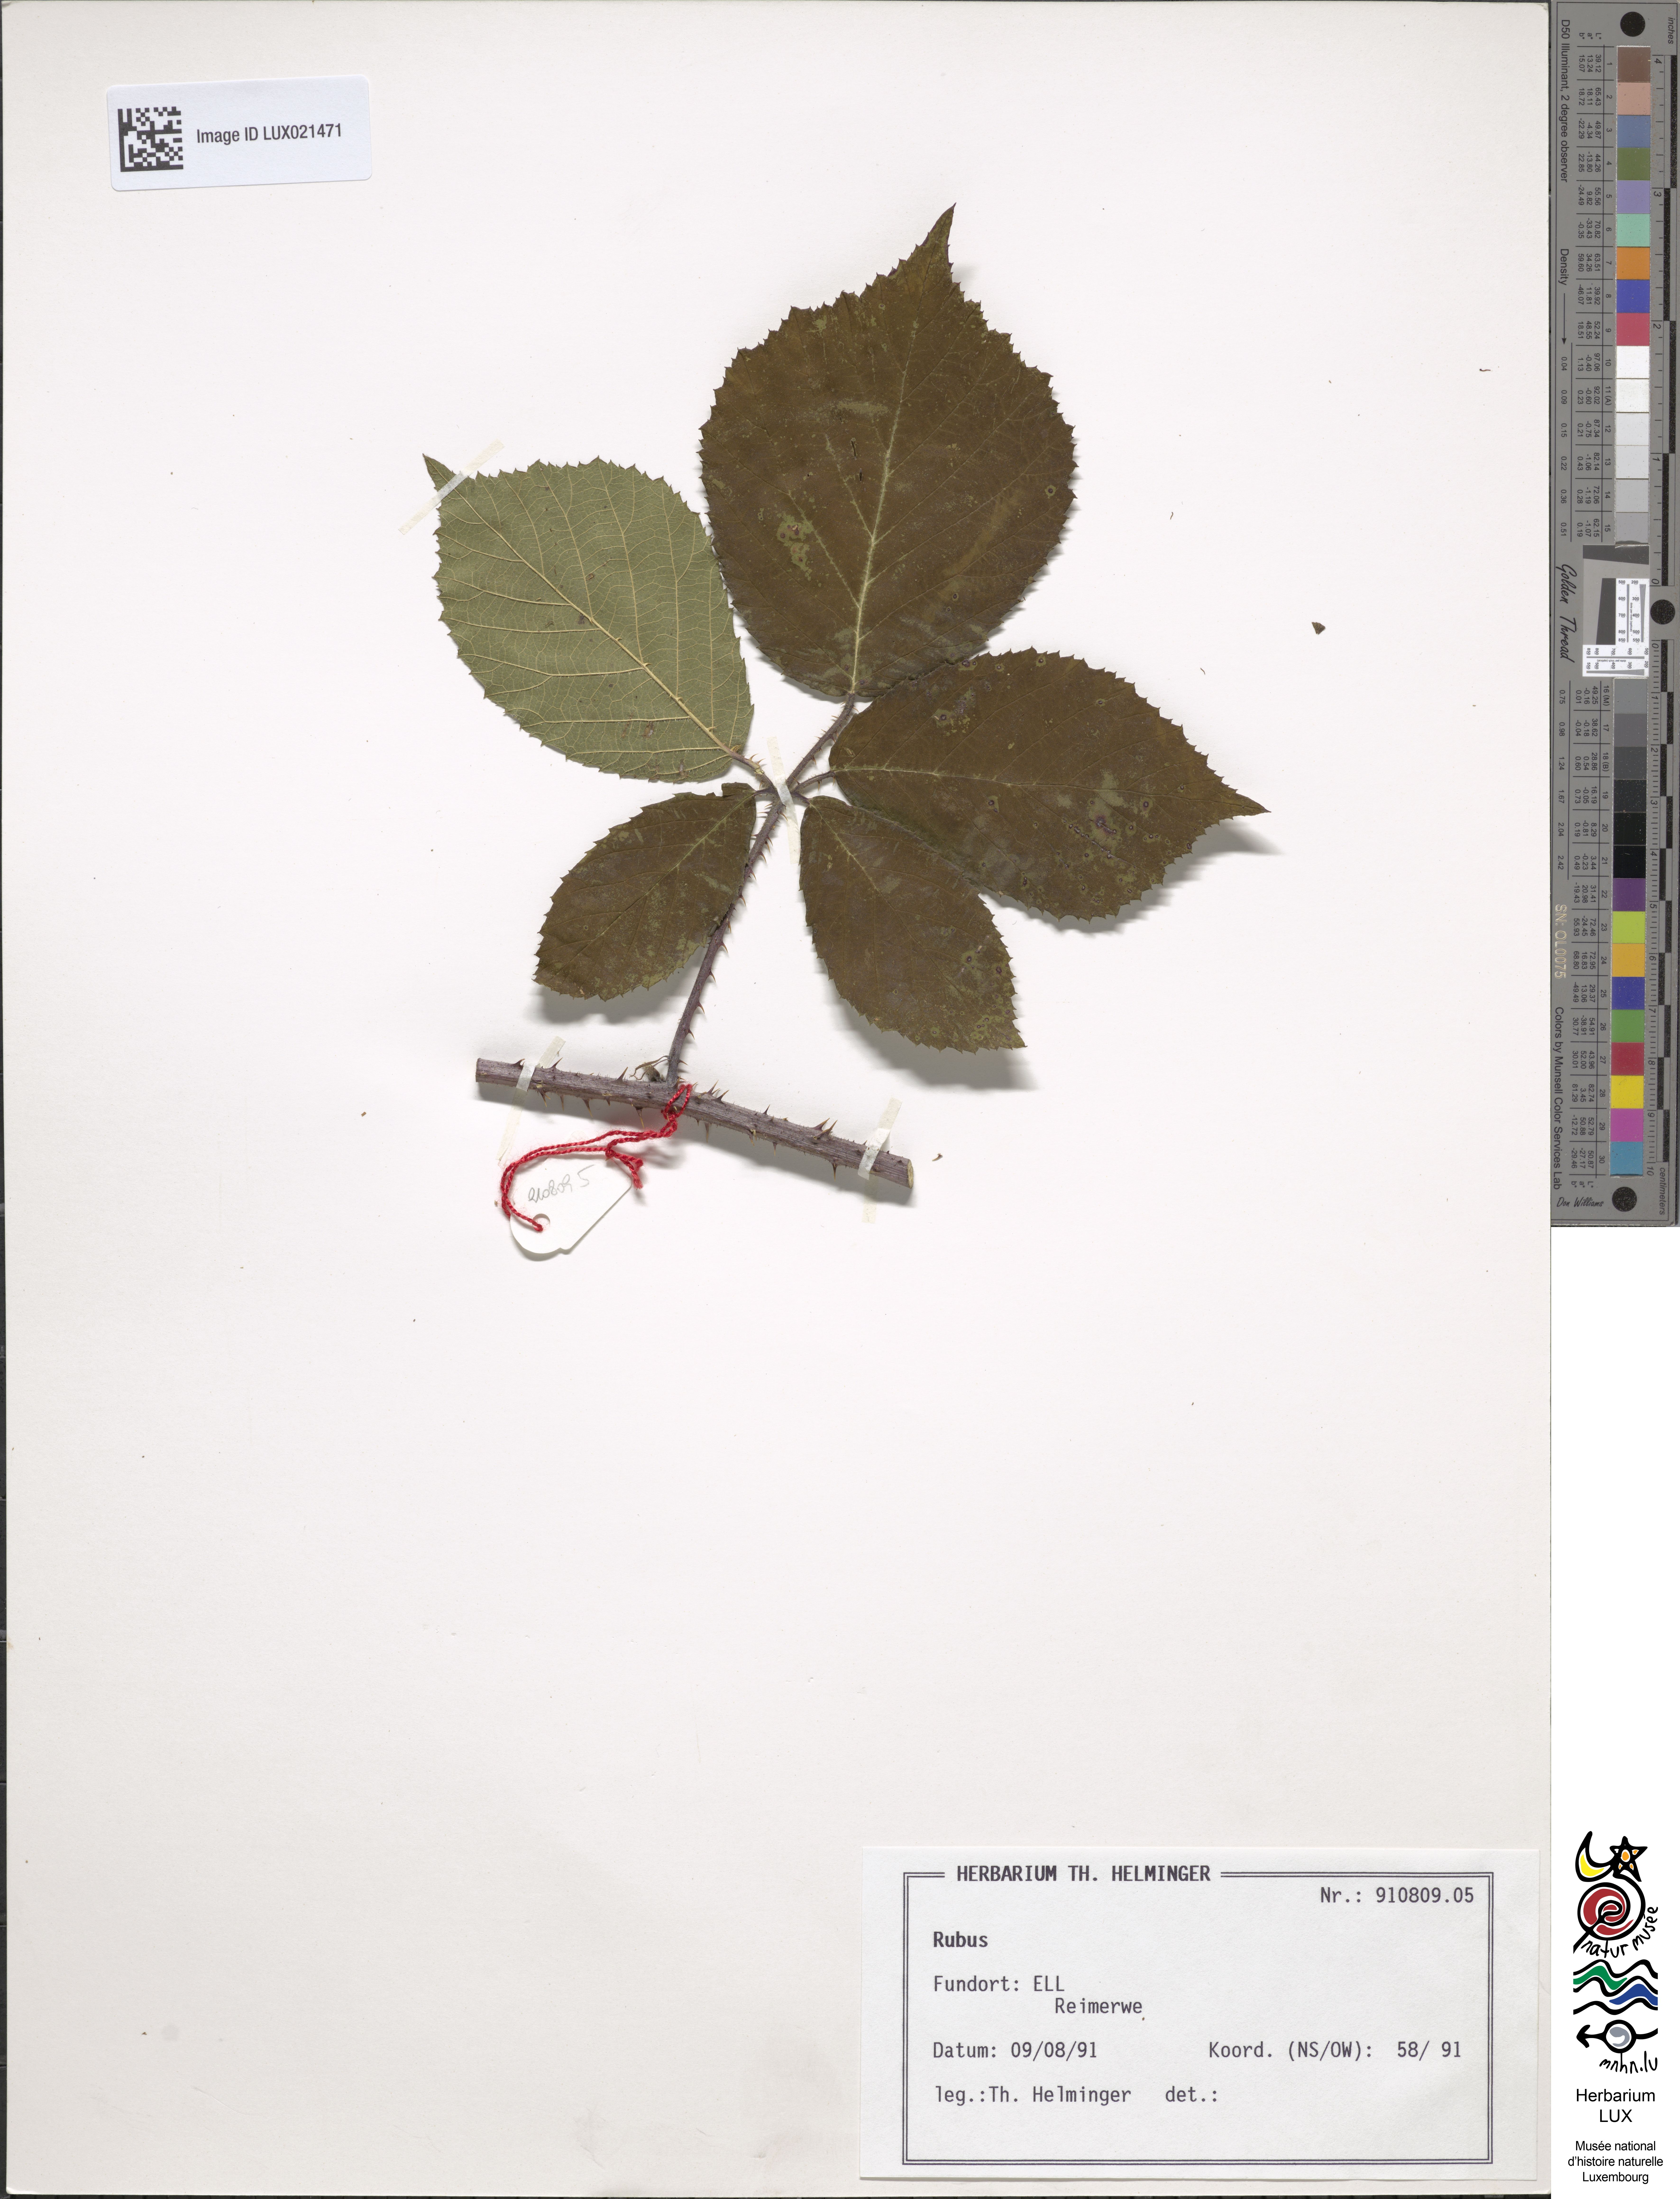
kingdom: Plantae
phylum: Tracheophyta
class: Magnoliopsida
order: Rosales
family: Rosaceae
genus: Rubus
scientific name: Rubus
